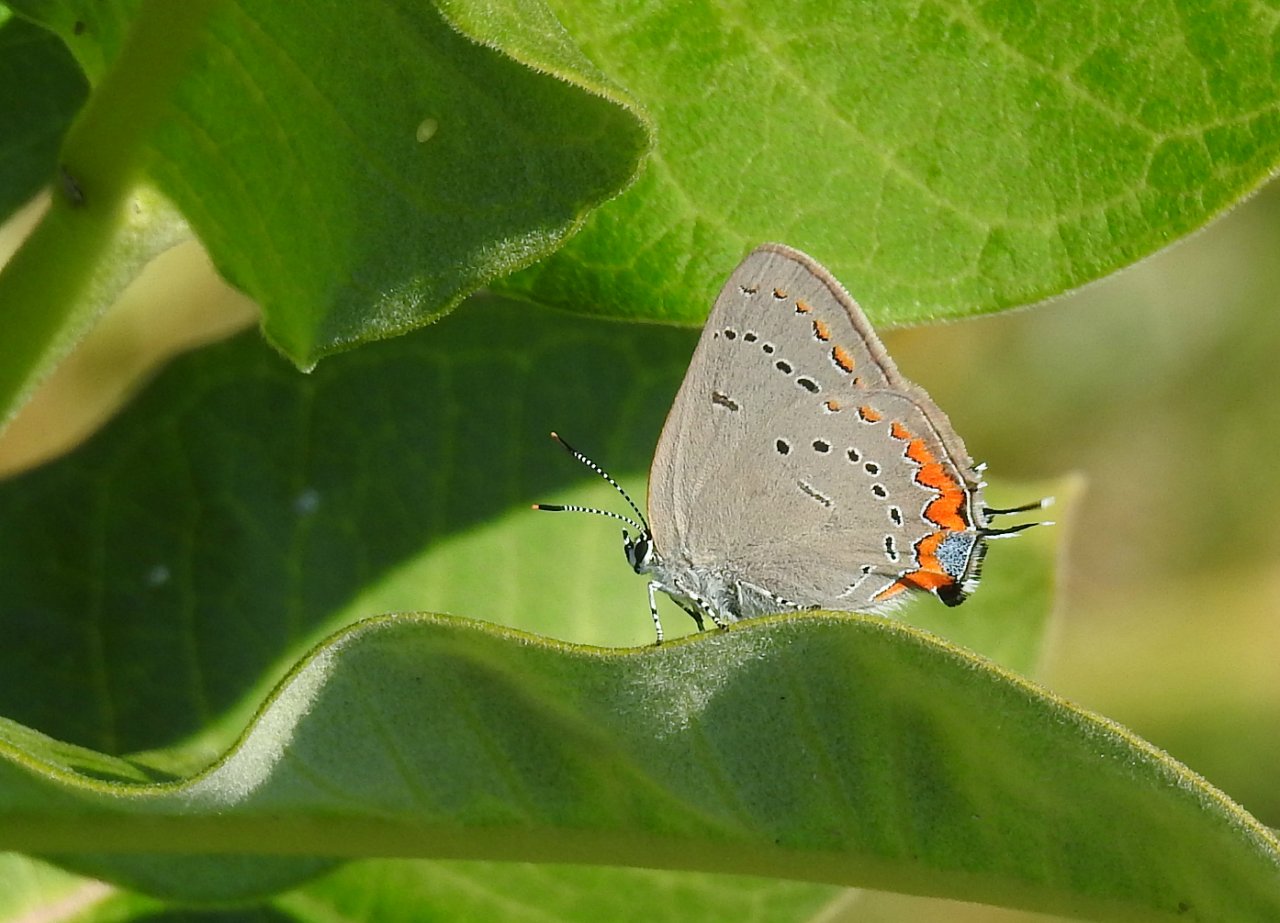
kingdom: Animalia
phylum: Arthropoda
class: Insecta
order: Lepidoptera
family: Lycaenidae
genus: Strymon
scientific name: Strymon acadica
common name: Acadian Hairstreak
